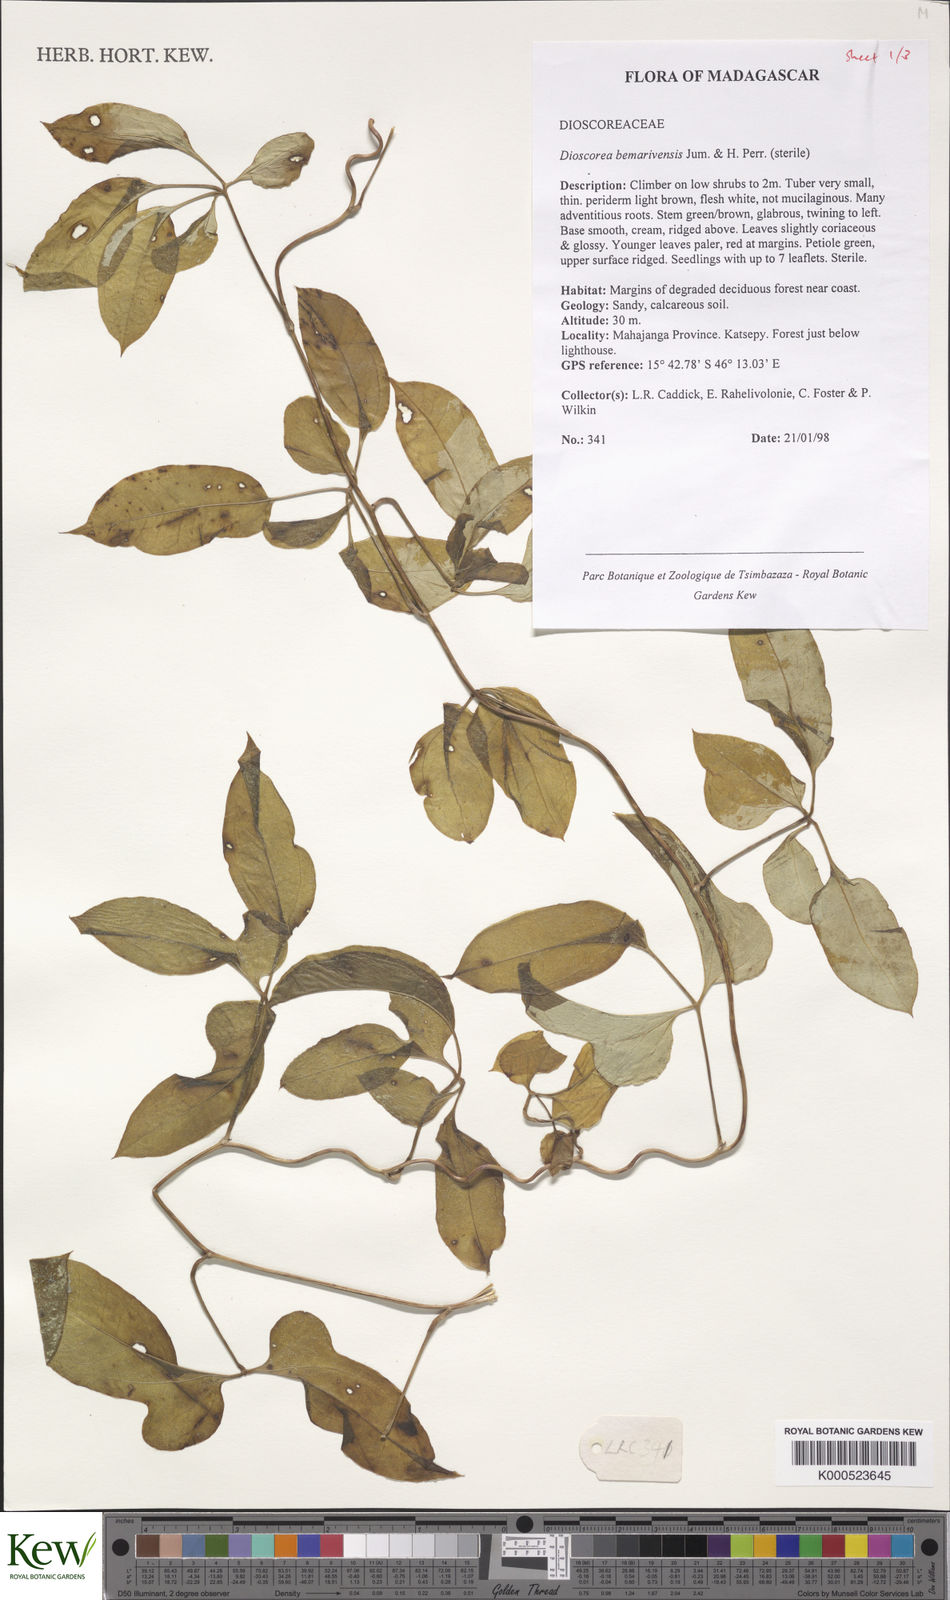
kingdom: Plantae
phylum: Tracheophyta
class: Liliopsida
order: Dioscoreales
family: Dioscoreaceae
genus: Dioscorea
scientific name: Dioscorea bemarivensis
